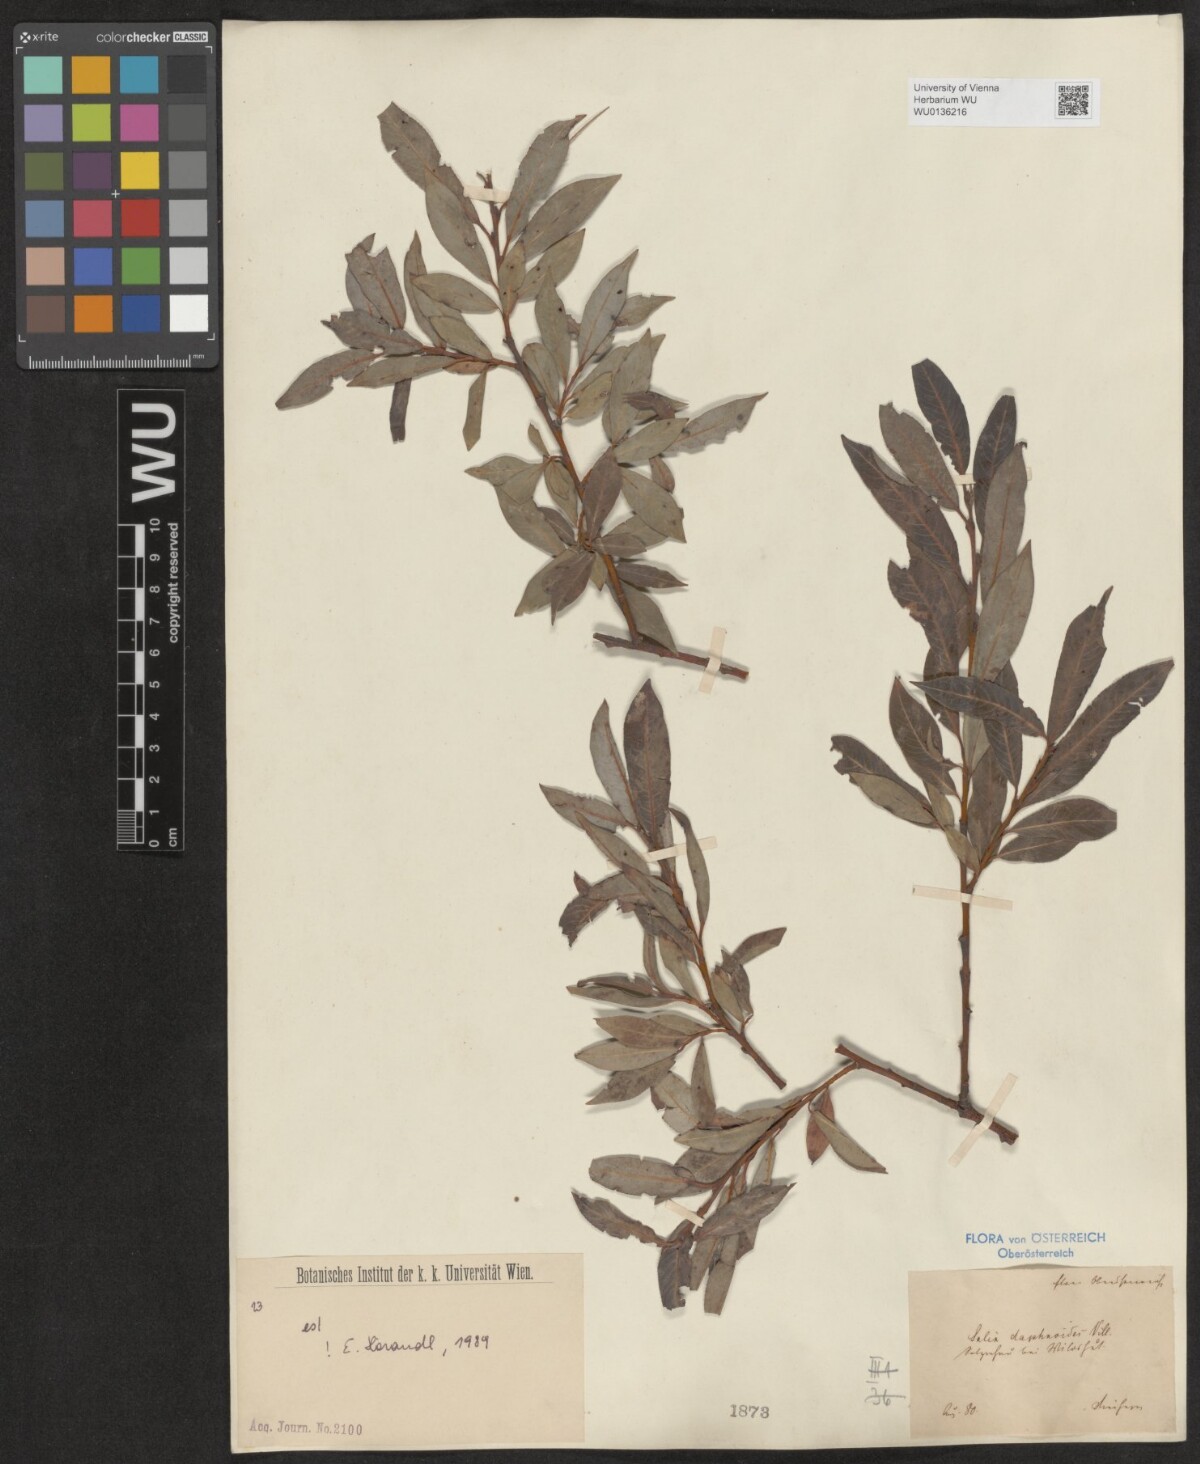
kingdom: Plantae
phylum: Tracheophyta
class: Magnoliopsida
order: Malpighiales
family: Salicaceae
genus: Salix
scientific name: Salix daphnoides
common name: European violet-willow
